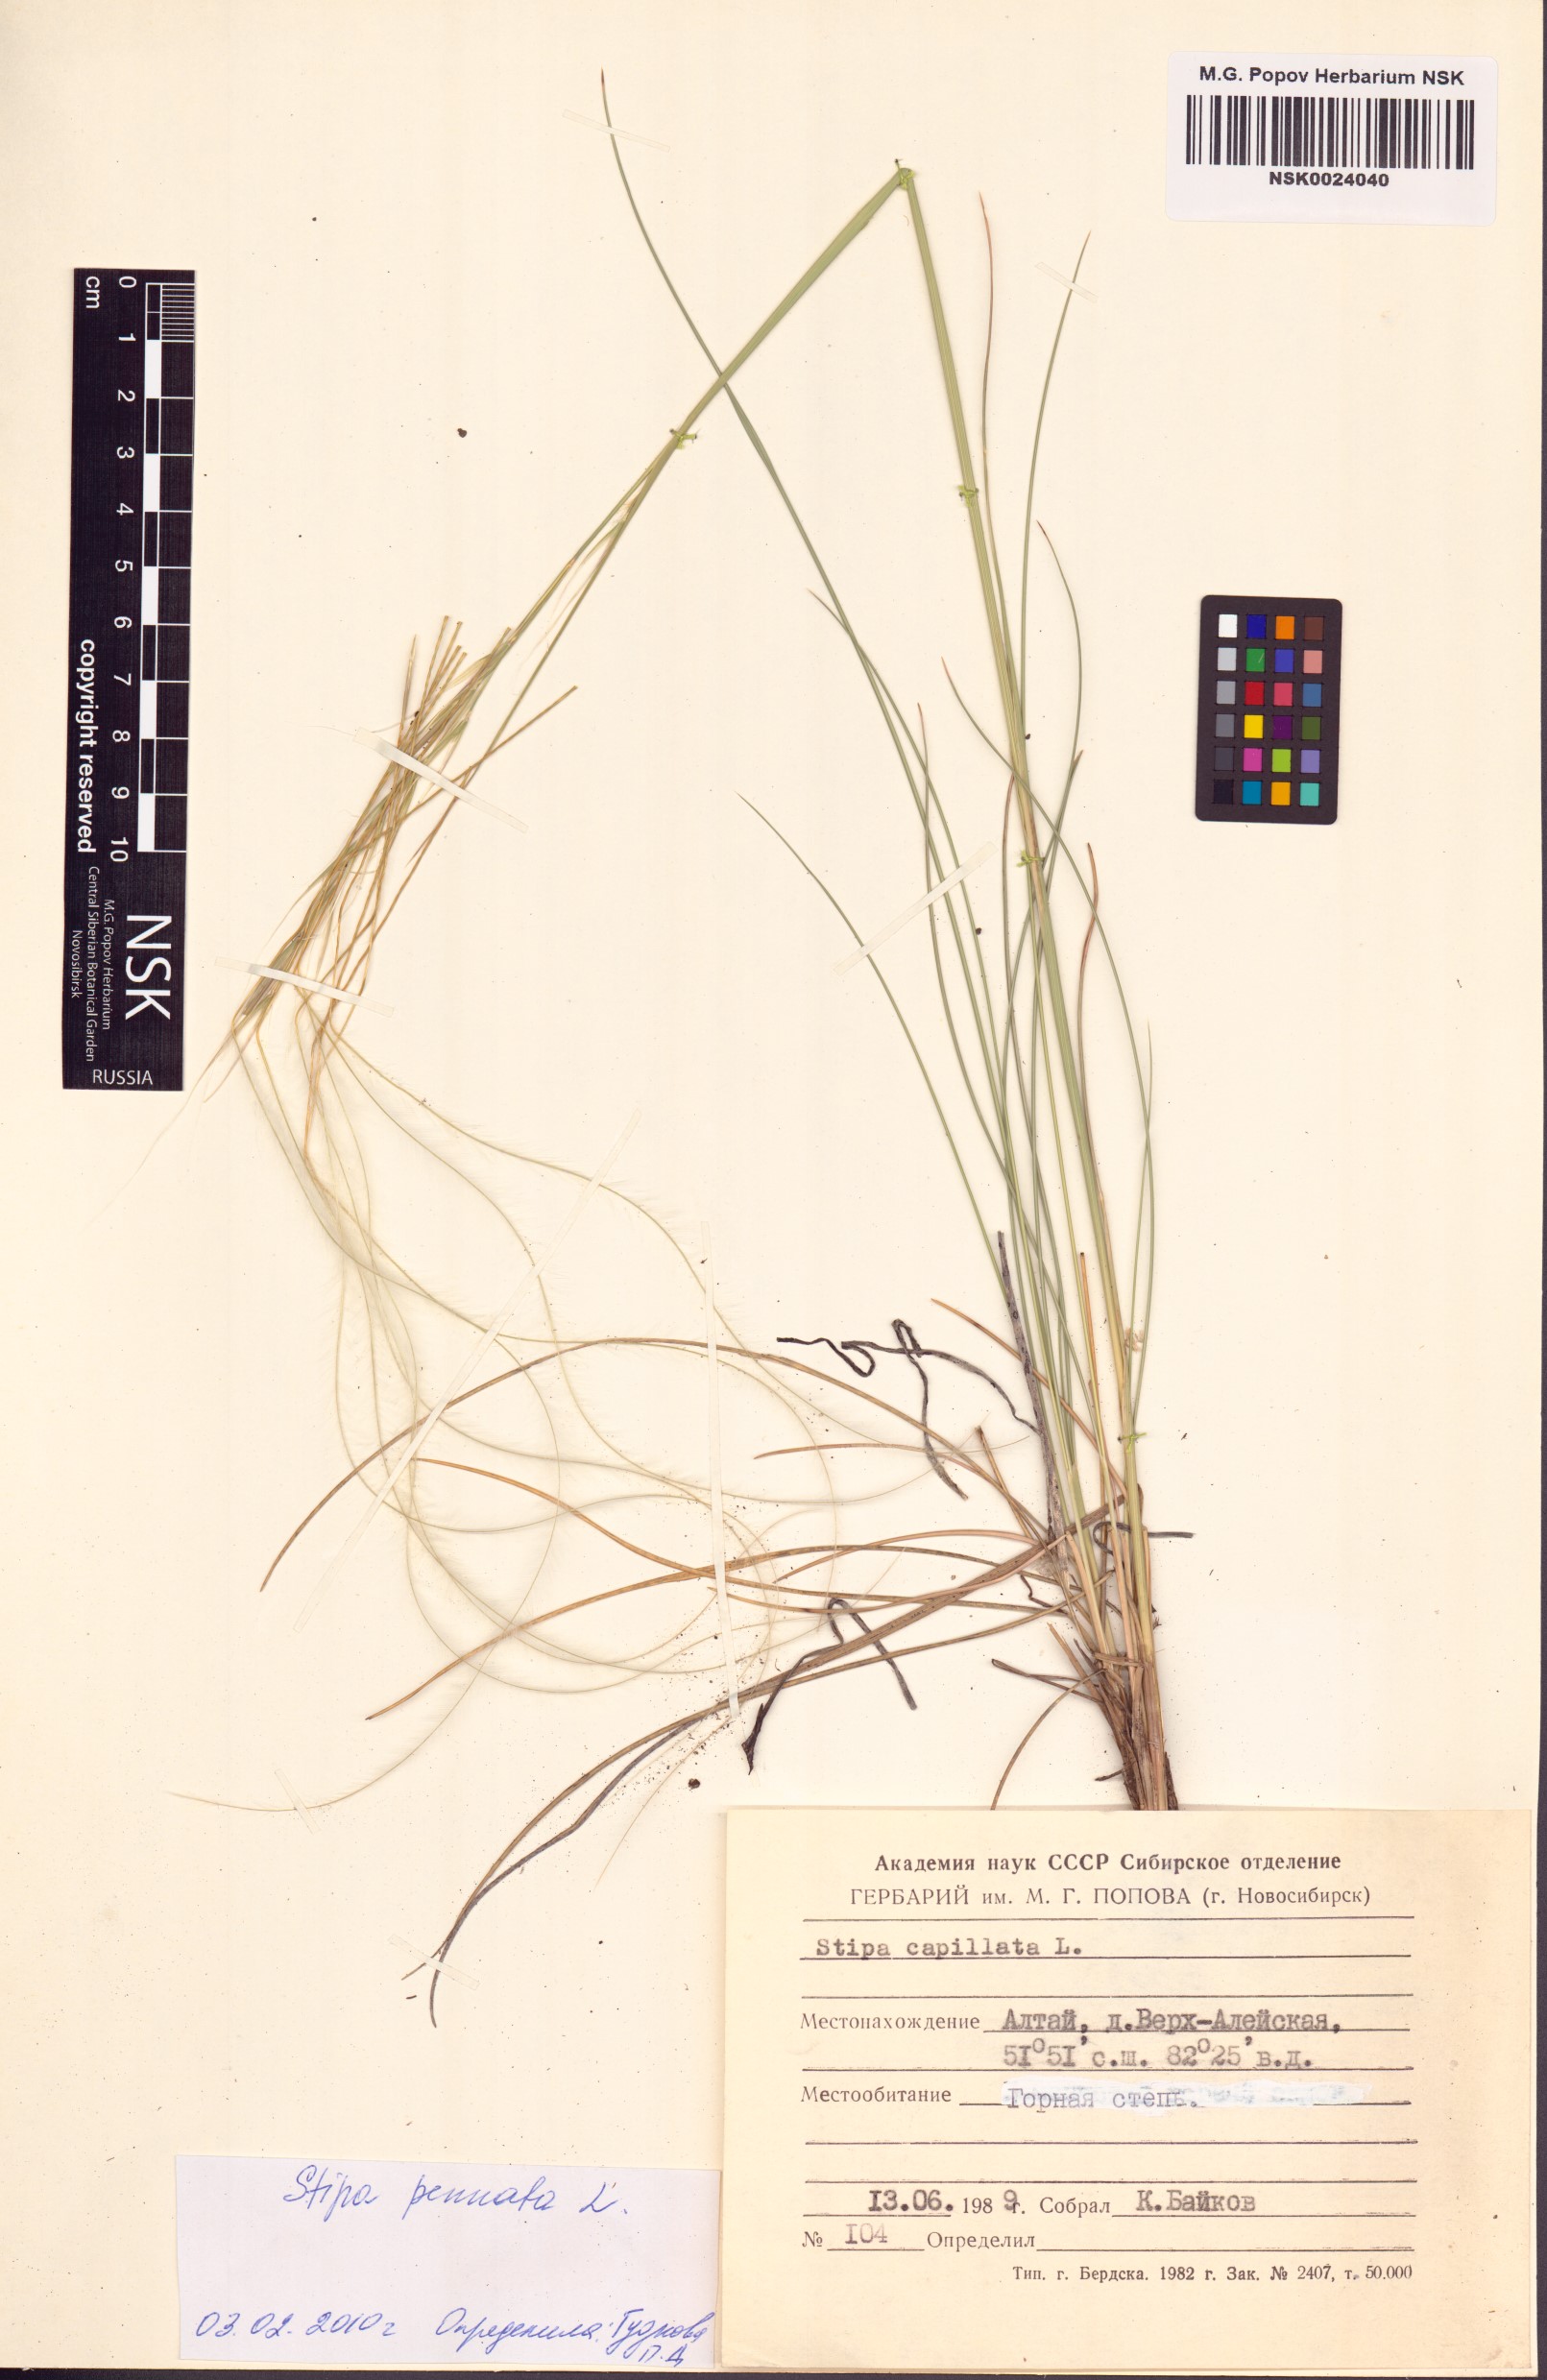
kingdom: Plantae
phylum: Tracheophyta
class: Liliopsida
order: Poales
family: Poaceae
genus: Stipa
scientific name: Stipa pennata
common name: European feather grass
